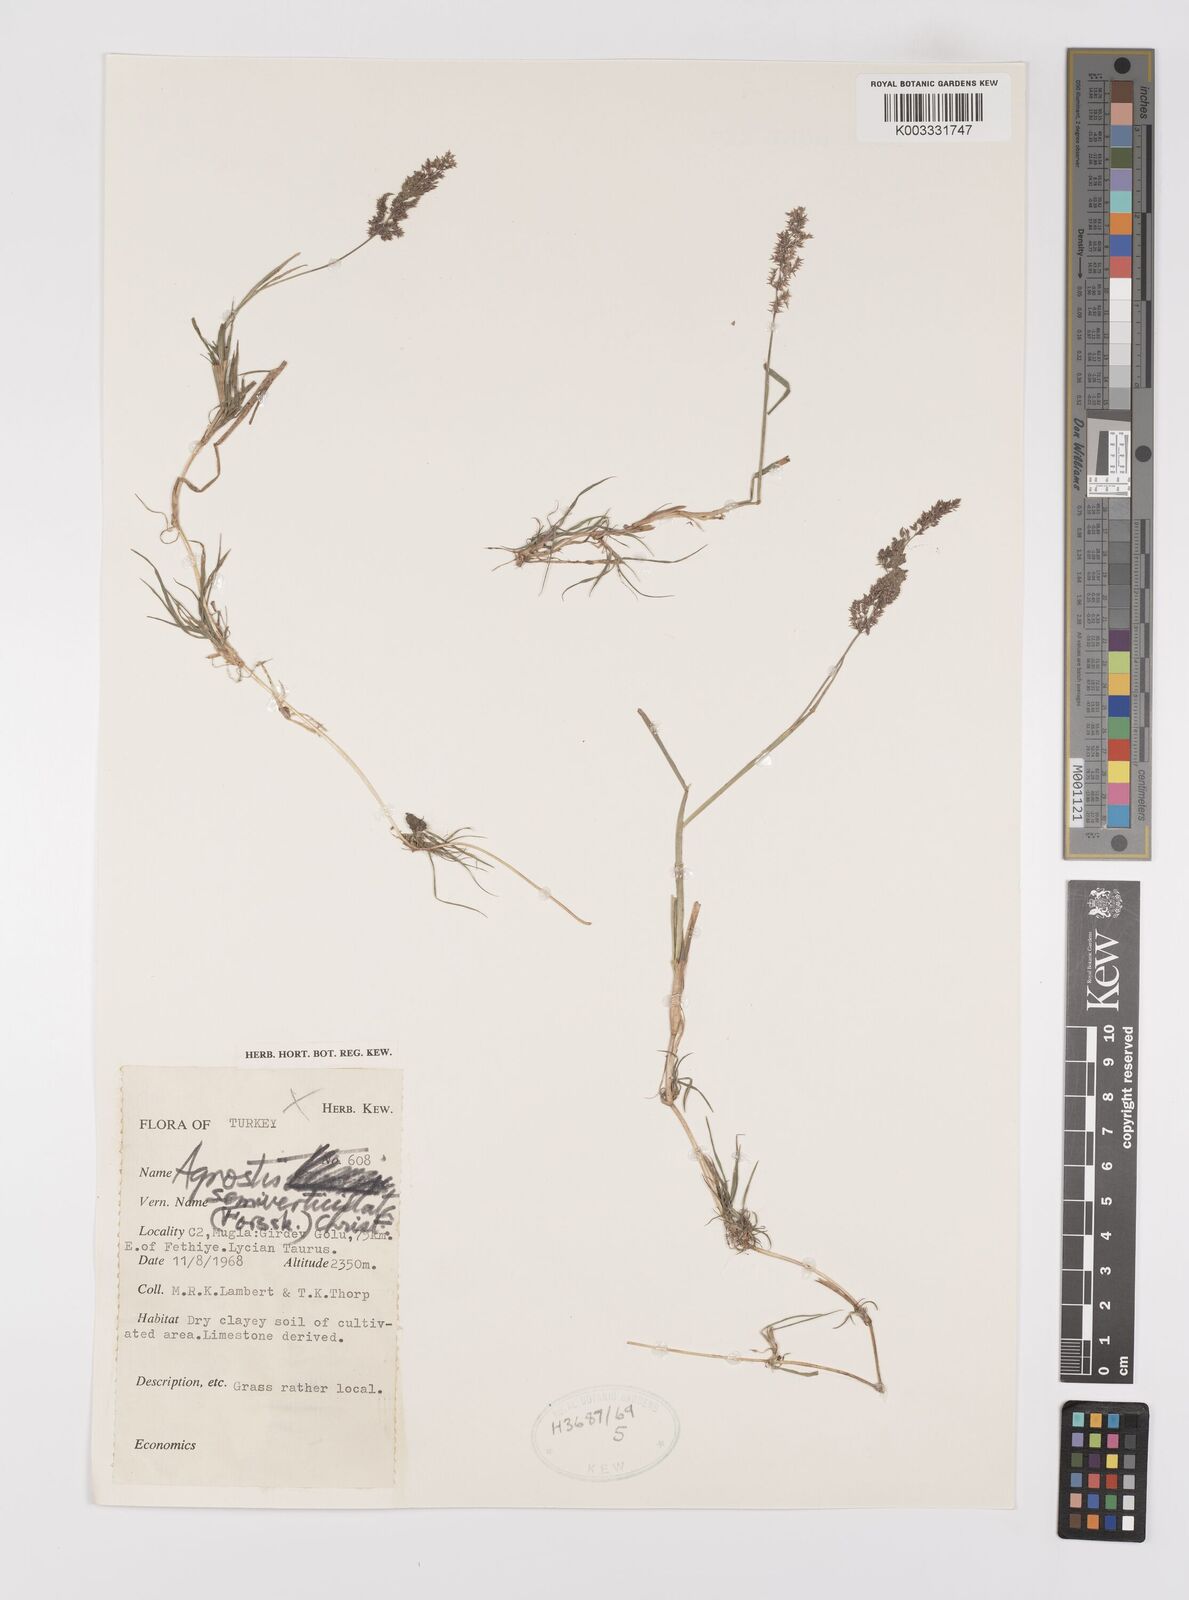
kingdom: Plantae
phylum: Tracheophyta
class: Liliopsida
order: Poales
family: Poaceae
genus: Polypogon
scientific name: Polypogon viridis
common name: Water bent
